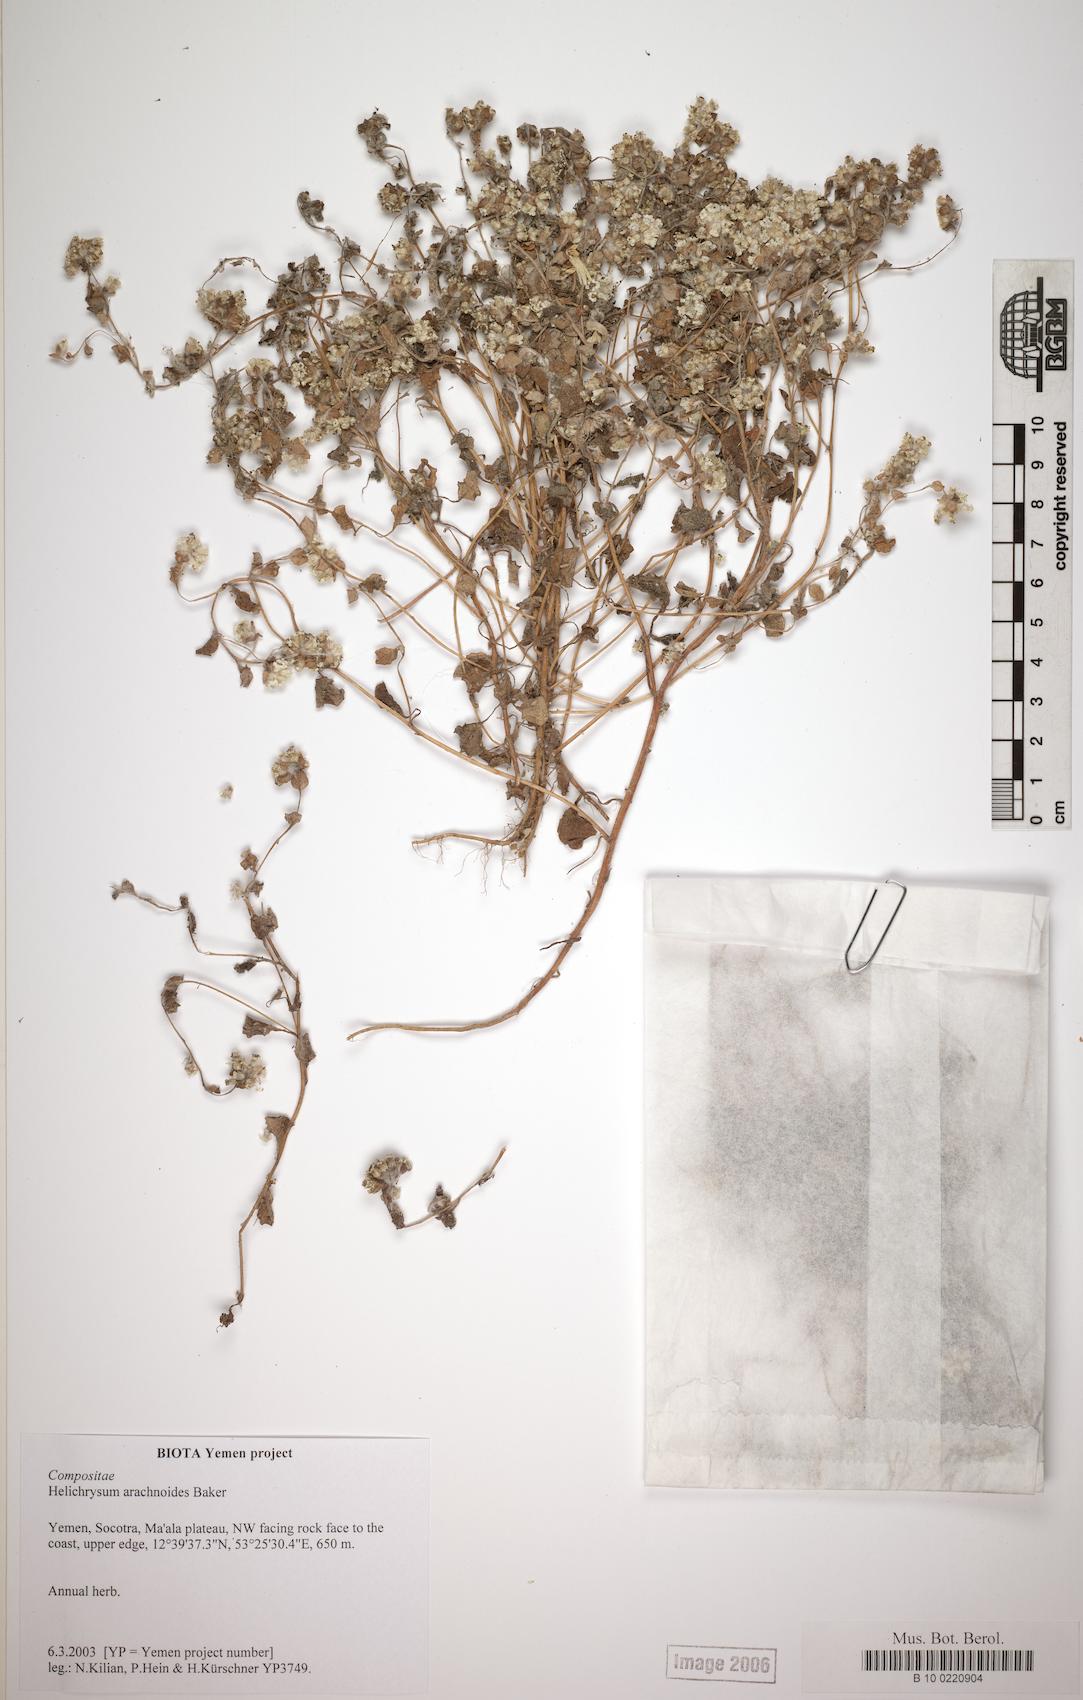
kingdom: Plantae
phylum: Tracheophyta
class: Magnoliopsida
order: Asterales
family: Asteraceae
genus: Libinhania
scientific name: Libinhania arachnoides
